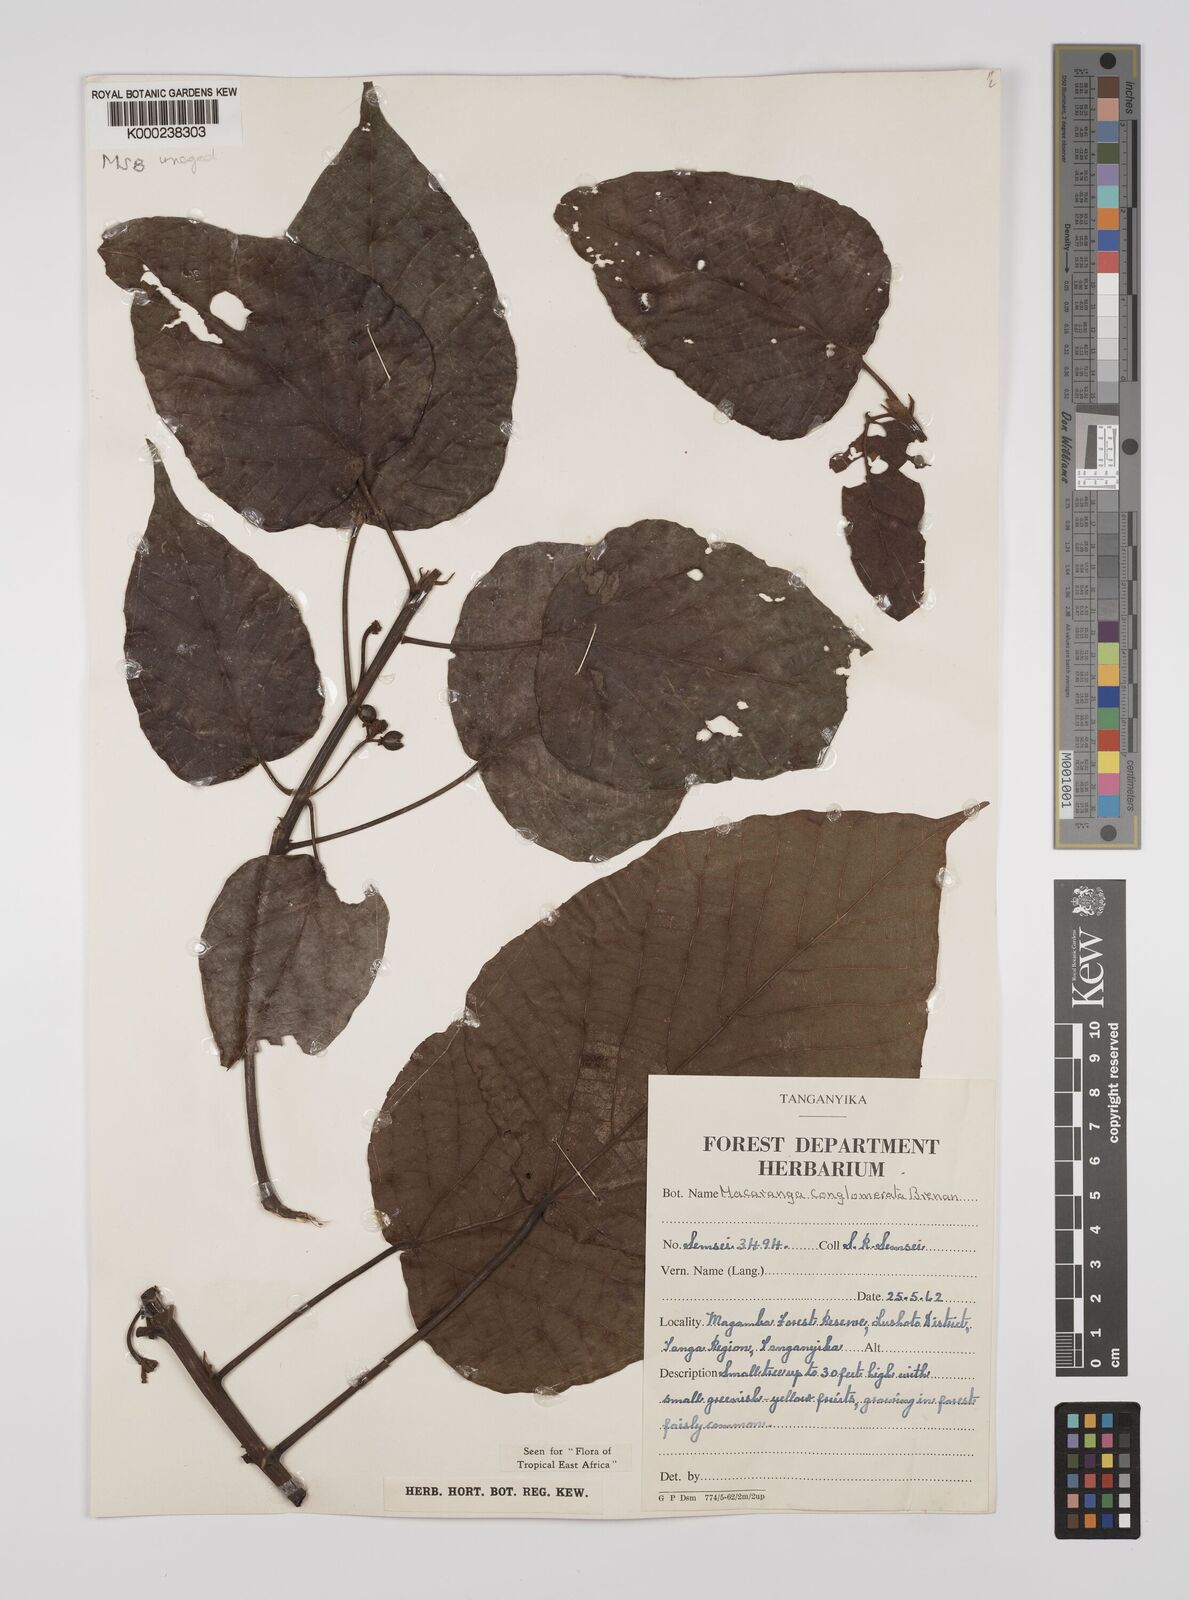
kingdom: Plantae
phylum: Tracheophyta
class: Magnoliopsida
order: Malpighiales
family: Euphorbiaceae
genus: Macaranga
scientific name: Macaranga conglomerata
